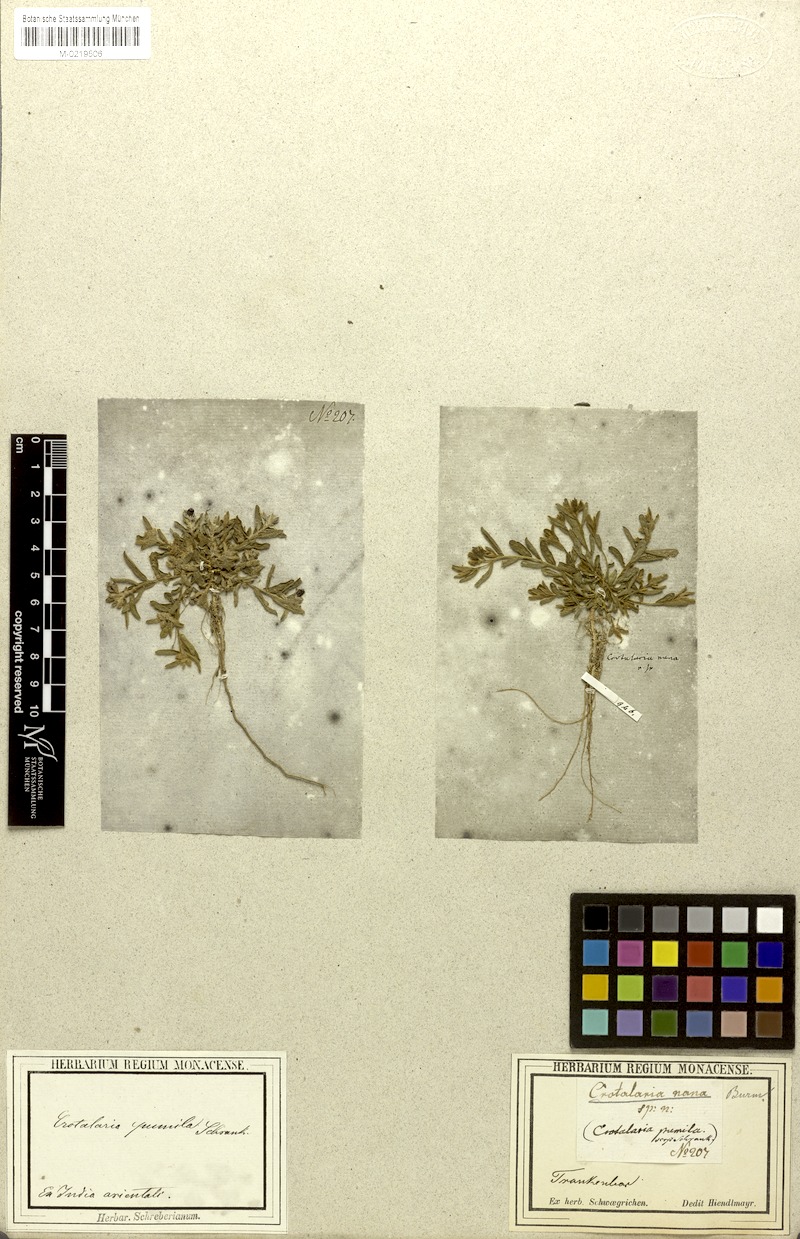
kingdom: Plantae
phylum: Tracheophyta
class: Magnoliopsida
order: Fabales
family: Fabaceae
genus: Crotalaria
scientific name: Crotalaria nana
